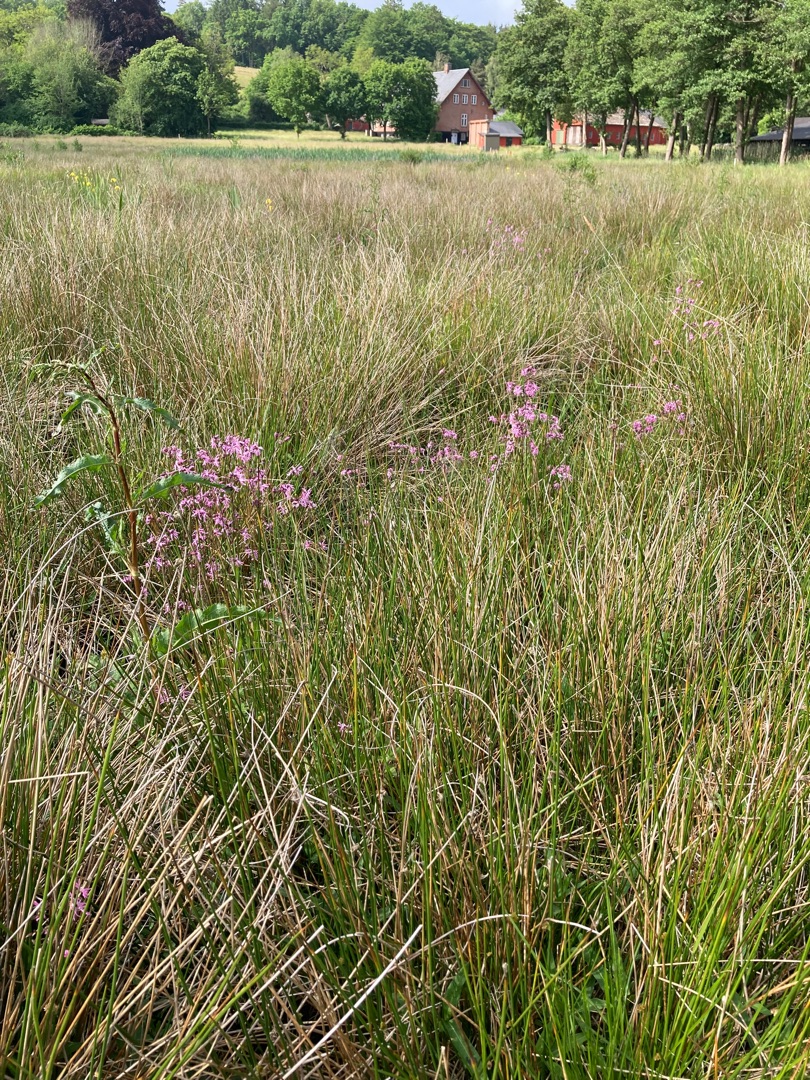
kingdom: Plantae
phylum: Tracheophyta
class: Magnoliopsida
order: Caryophyllales
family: Caryophyllaceae
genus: Silene
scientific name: Silene flos-cuculi
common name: Trævlekrone
